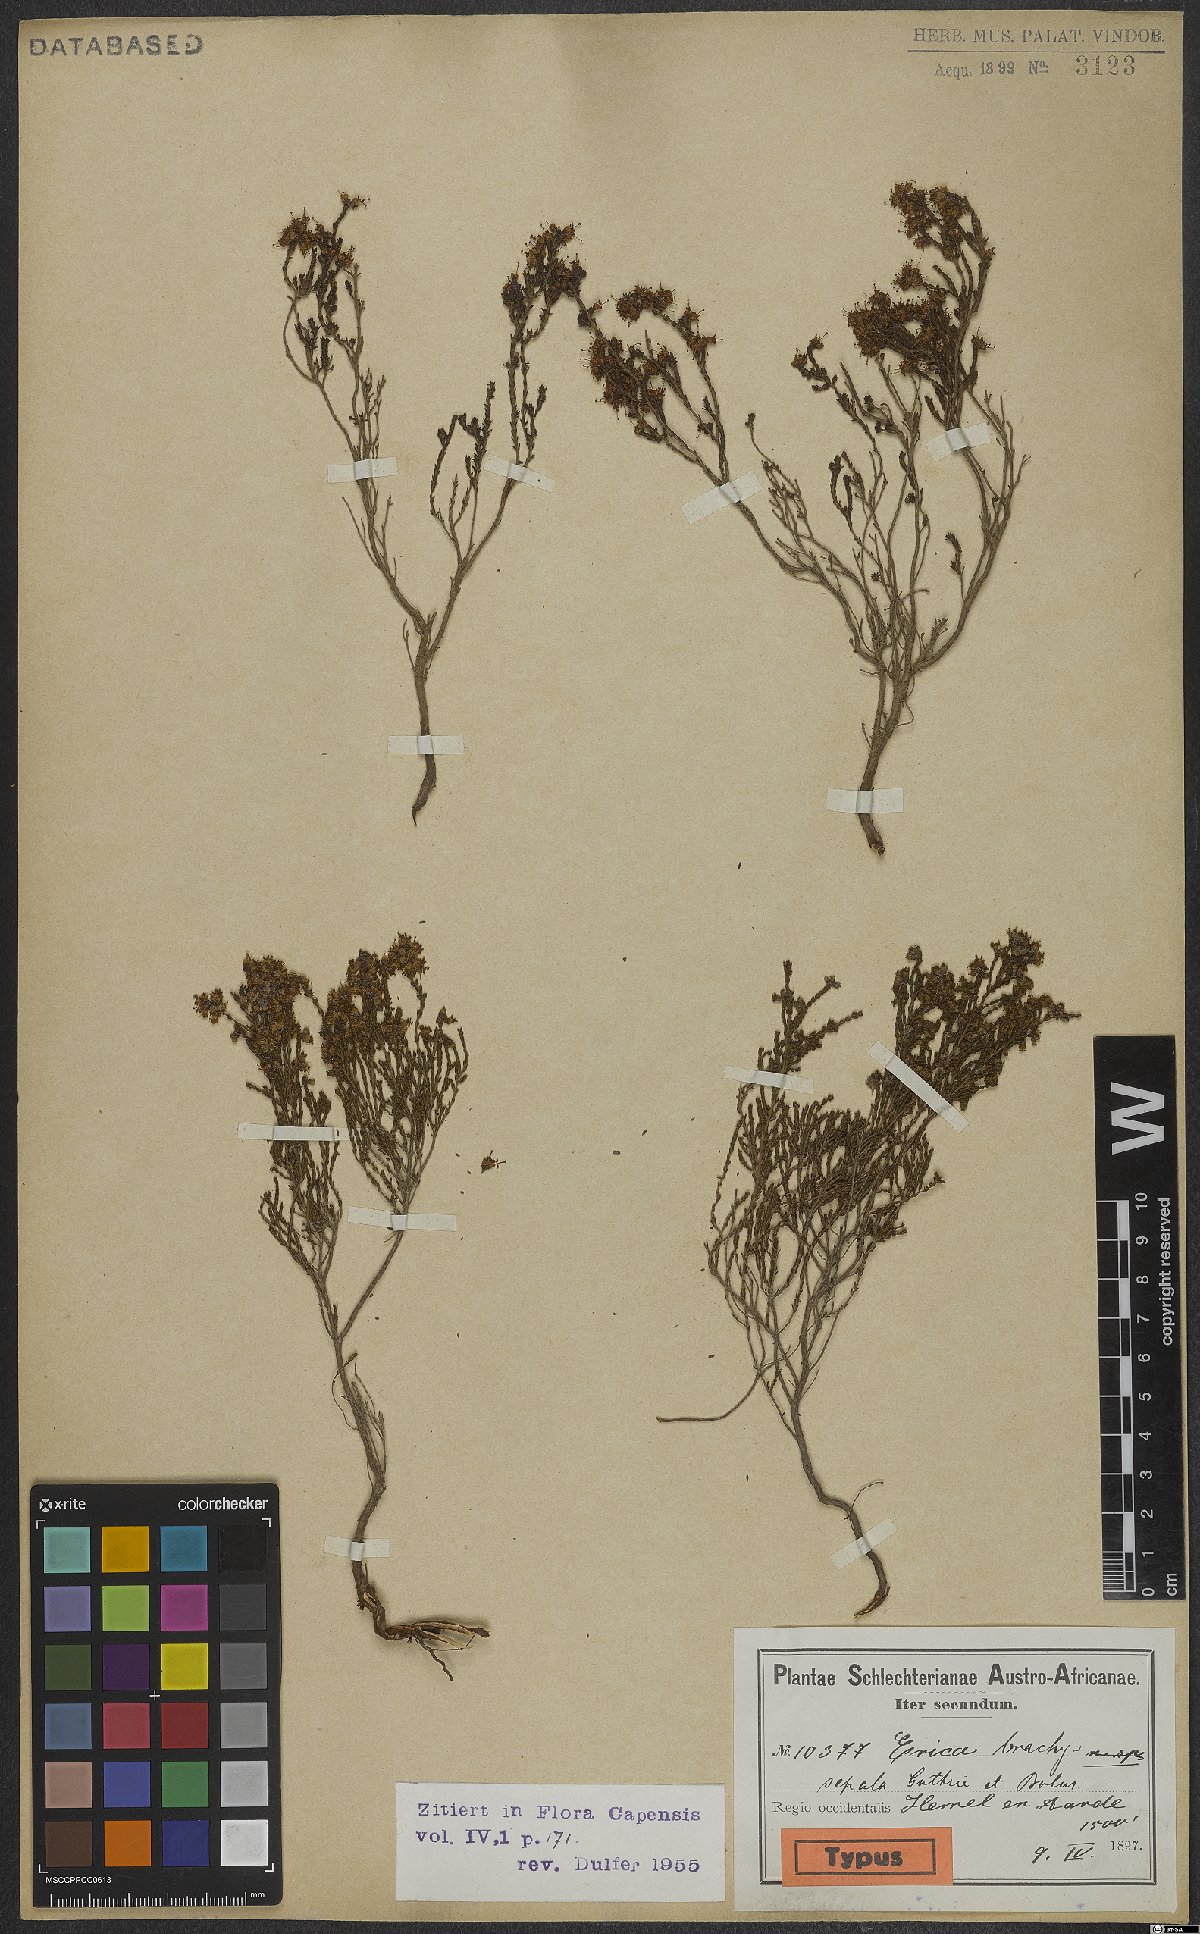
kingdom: Plantae
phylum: Tracheophyta
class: Magnoliopsida
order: Ericales
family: Ericaceae
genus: Erica
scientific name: Erica brachysepala
